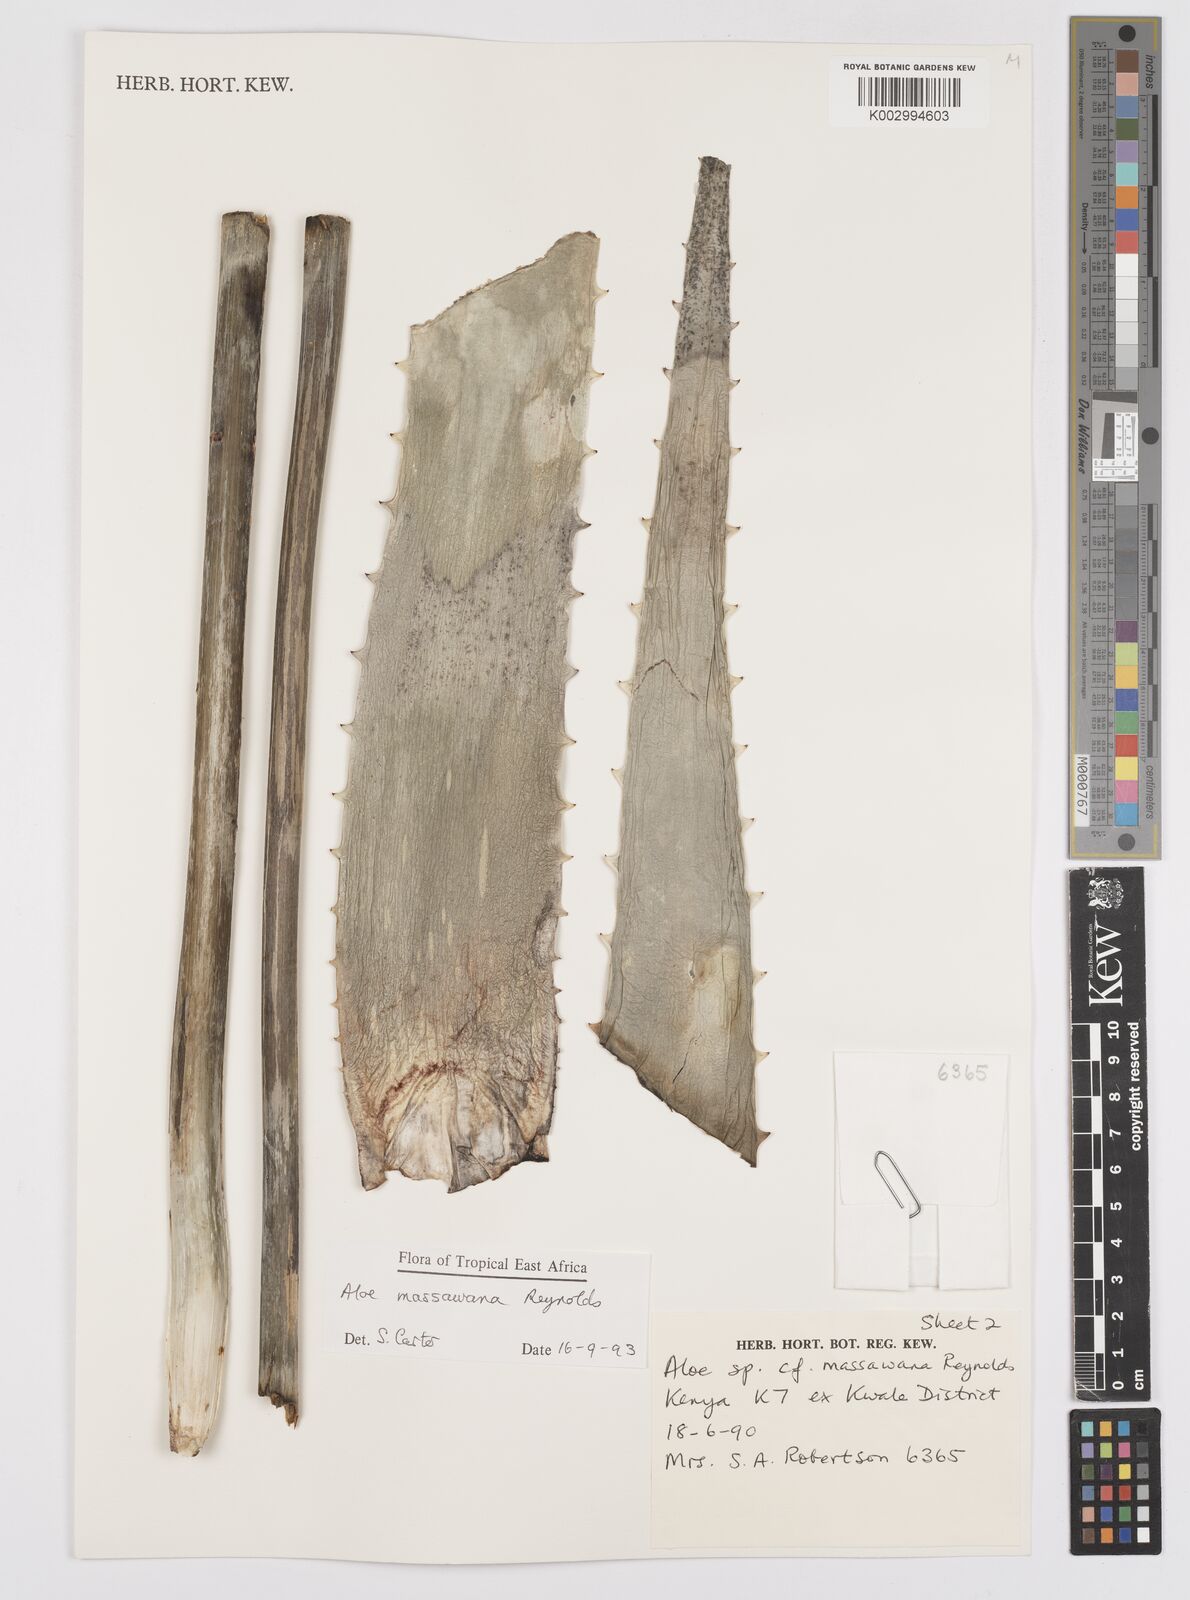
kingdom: Plantae
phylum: Tracheophyta
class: Liliopsida
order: Asparagales
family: Asphodelaceae
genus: Aloe
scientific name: Aloe massawana
